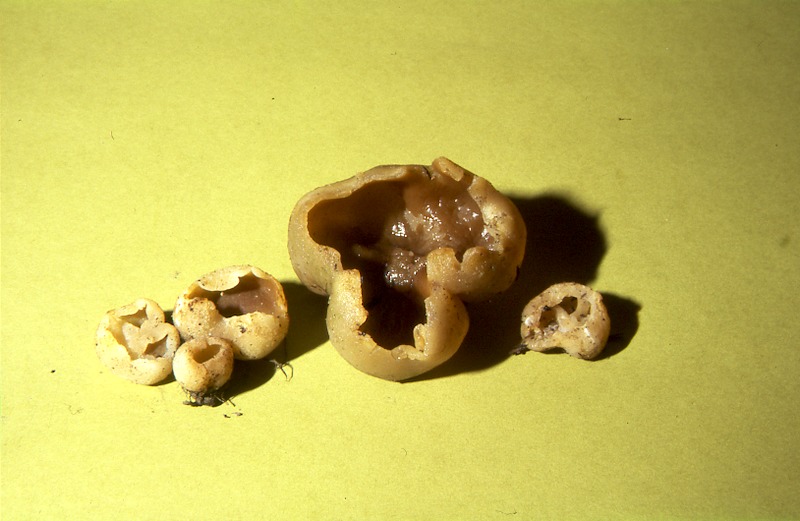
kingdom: Fungi
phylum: Ascomycota
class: Pezizomycetes
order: Pezizales
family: Pezizaceae
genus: Peziza
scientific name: Peziza vesiculosa
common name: Blistered cup
